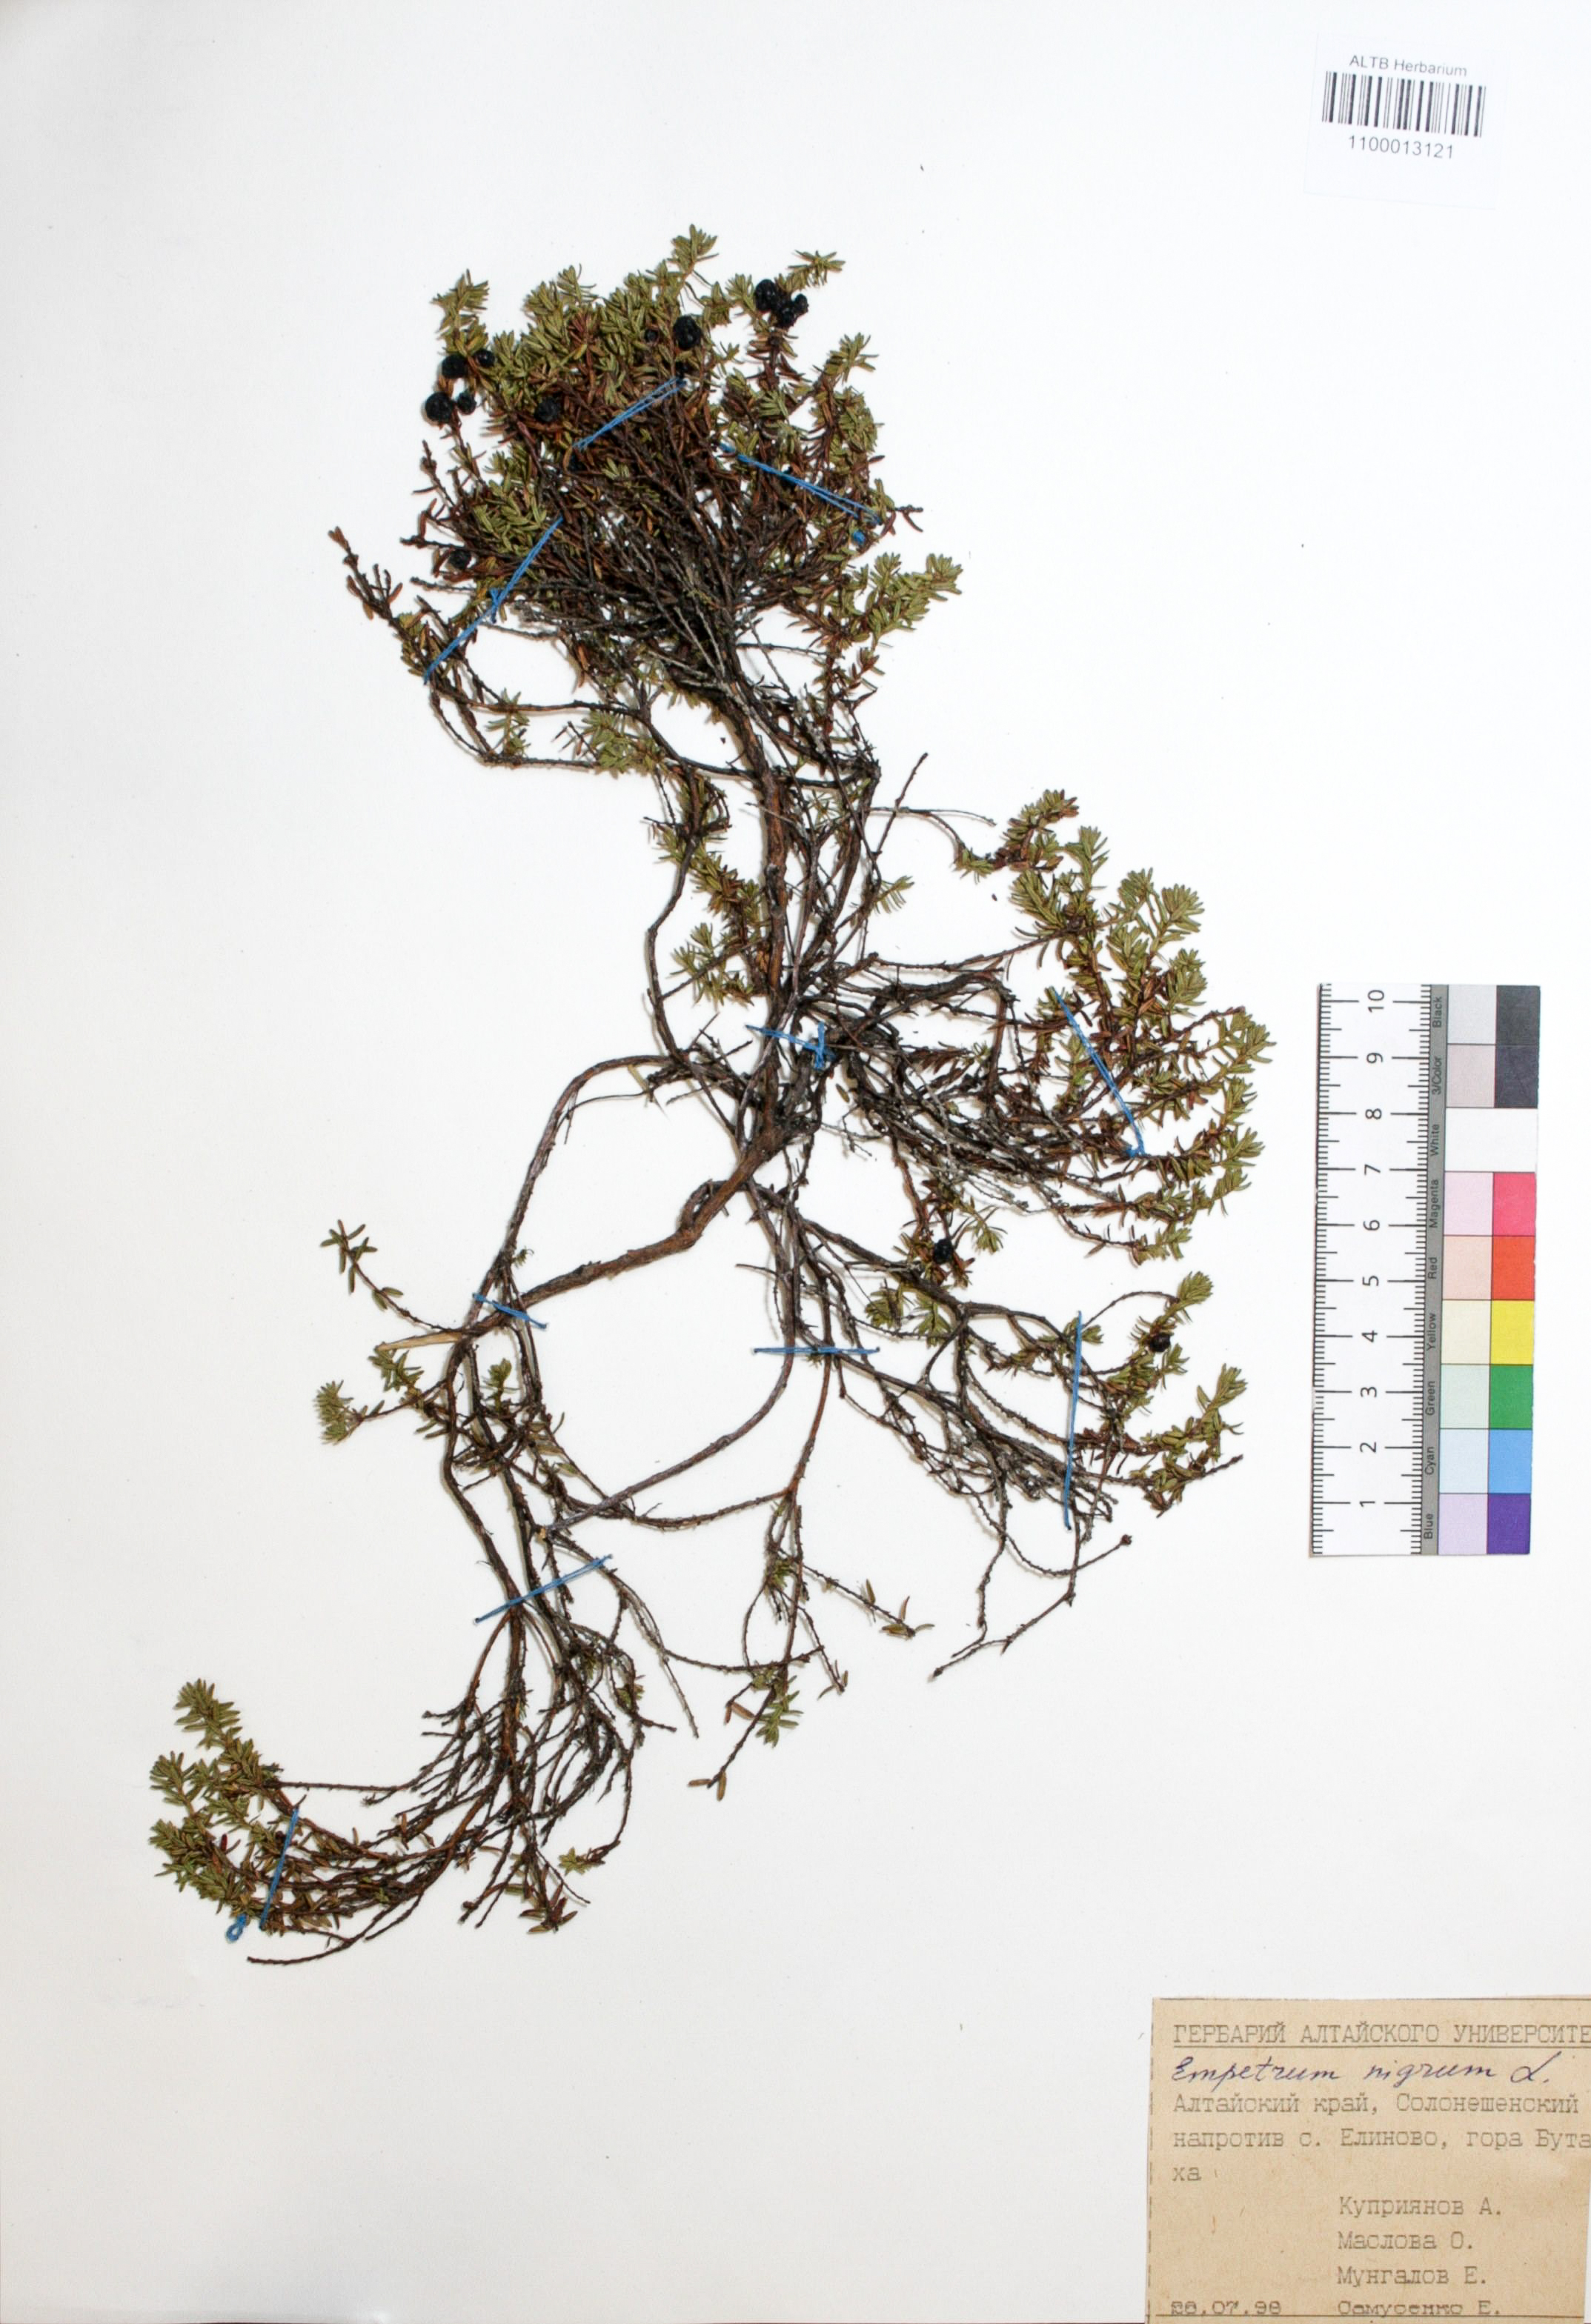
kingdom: Plantae
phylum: Tracheophyta
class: Magnoliopsida
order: Ericales
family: Ericaceae
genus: Empetrum
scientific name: Empetrum nigrum
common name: Black crowberry
